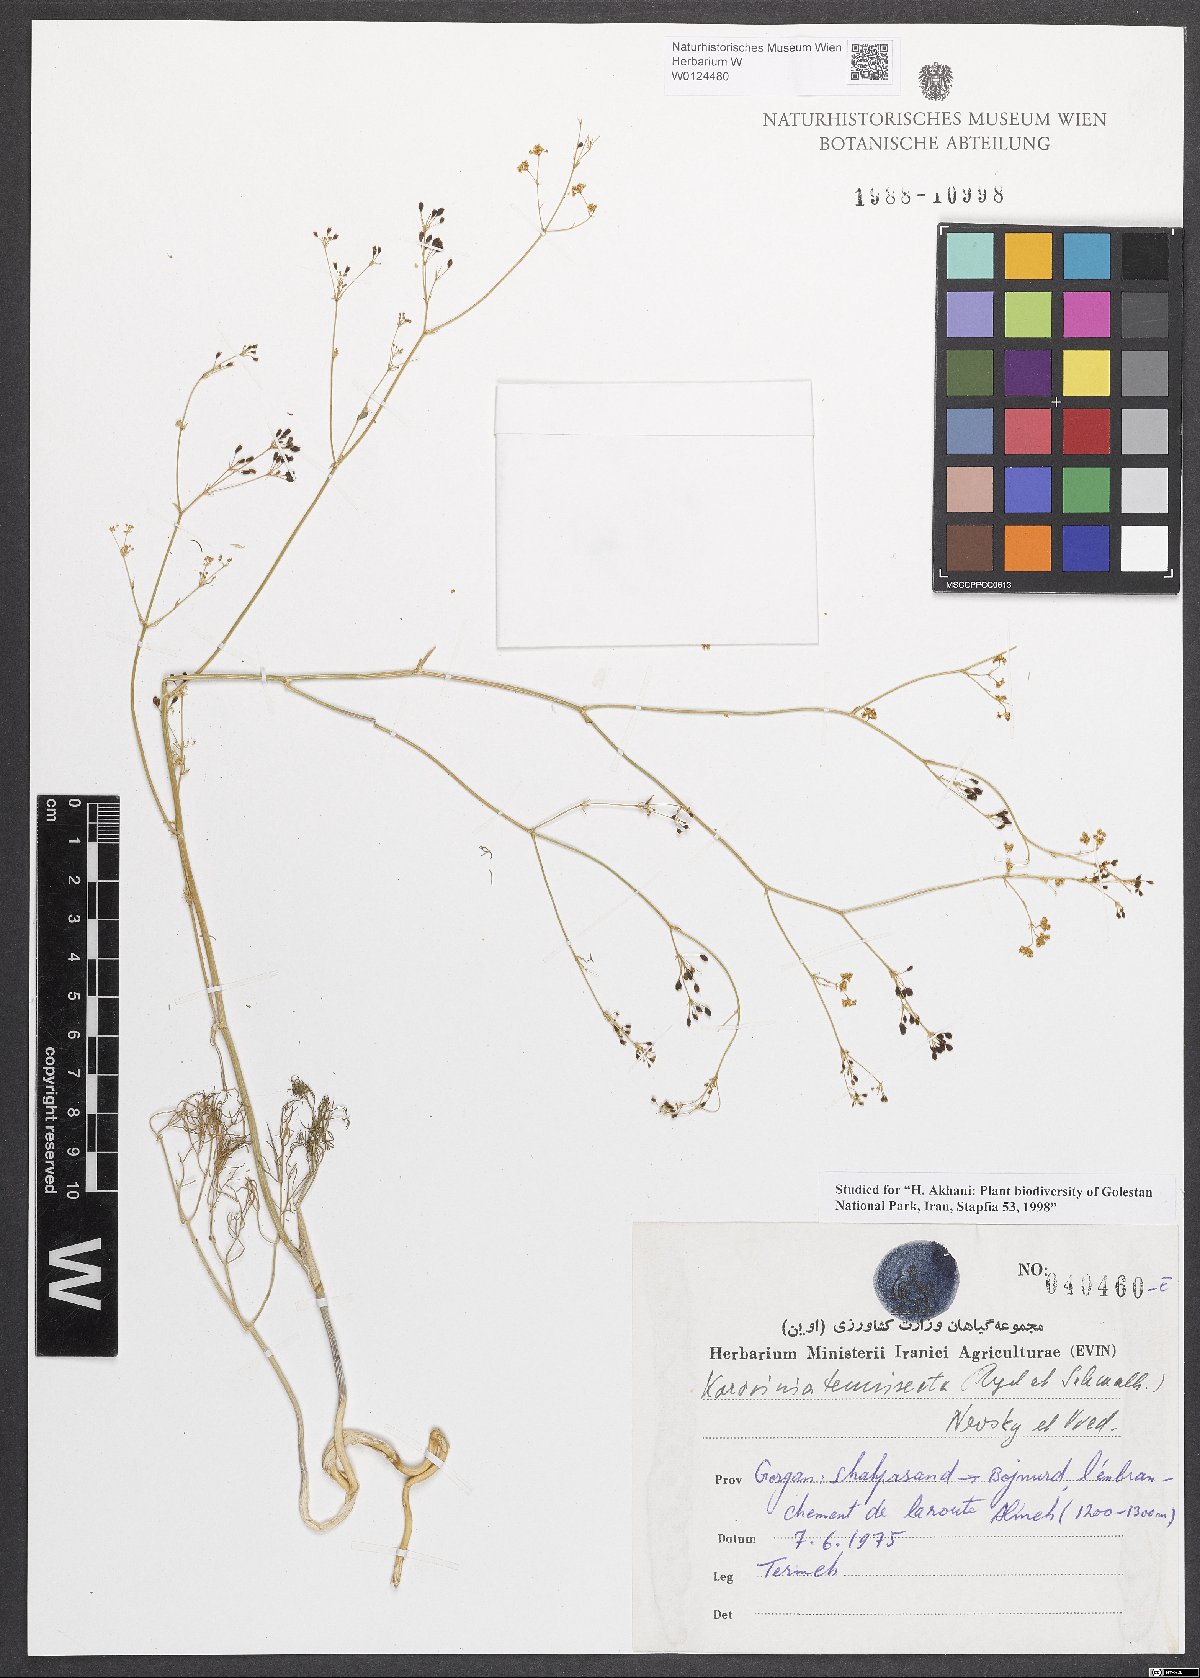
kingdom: Plantae
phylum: Tracheophyta
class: Magnoliopsida
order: Apiales
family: Apiaceae
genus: Galagania
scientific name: Galagania tenuisecta
